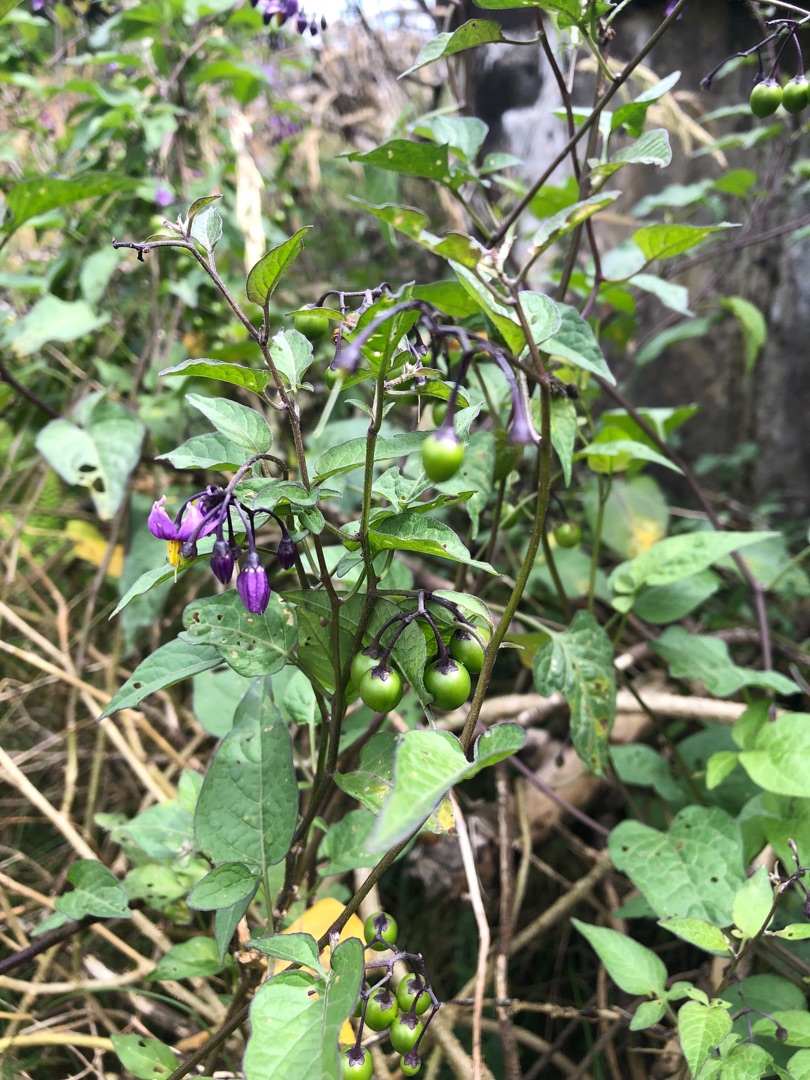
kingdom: Plantae
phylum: Tracheophyta
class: Magnoliopsida
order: Solanales
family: Solanaceae
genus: Solanum
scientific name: Solanum dulcamara
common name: Bittersød natskygge
